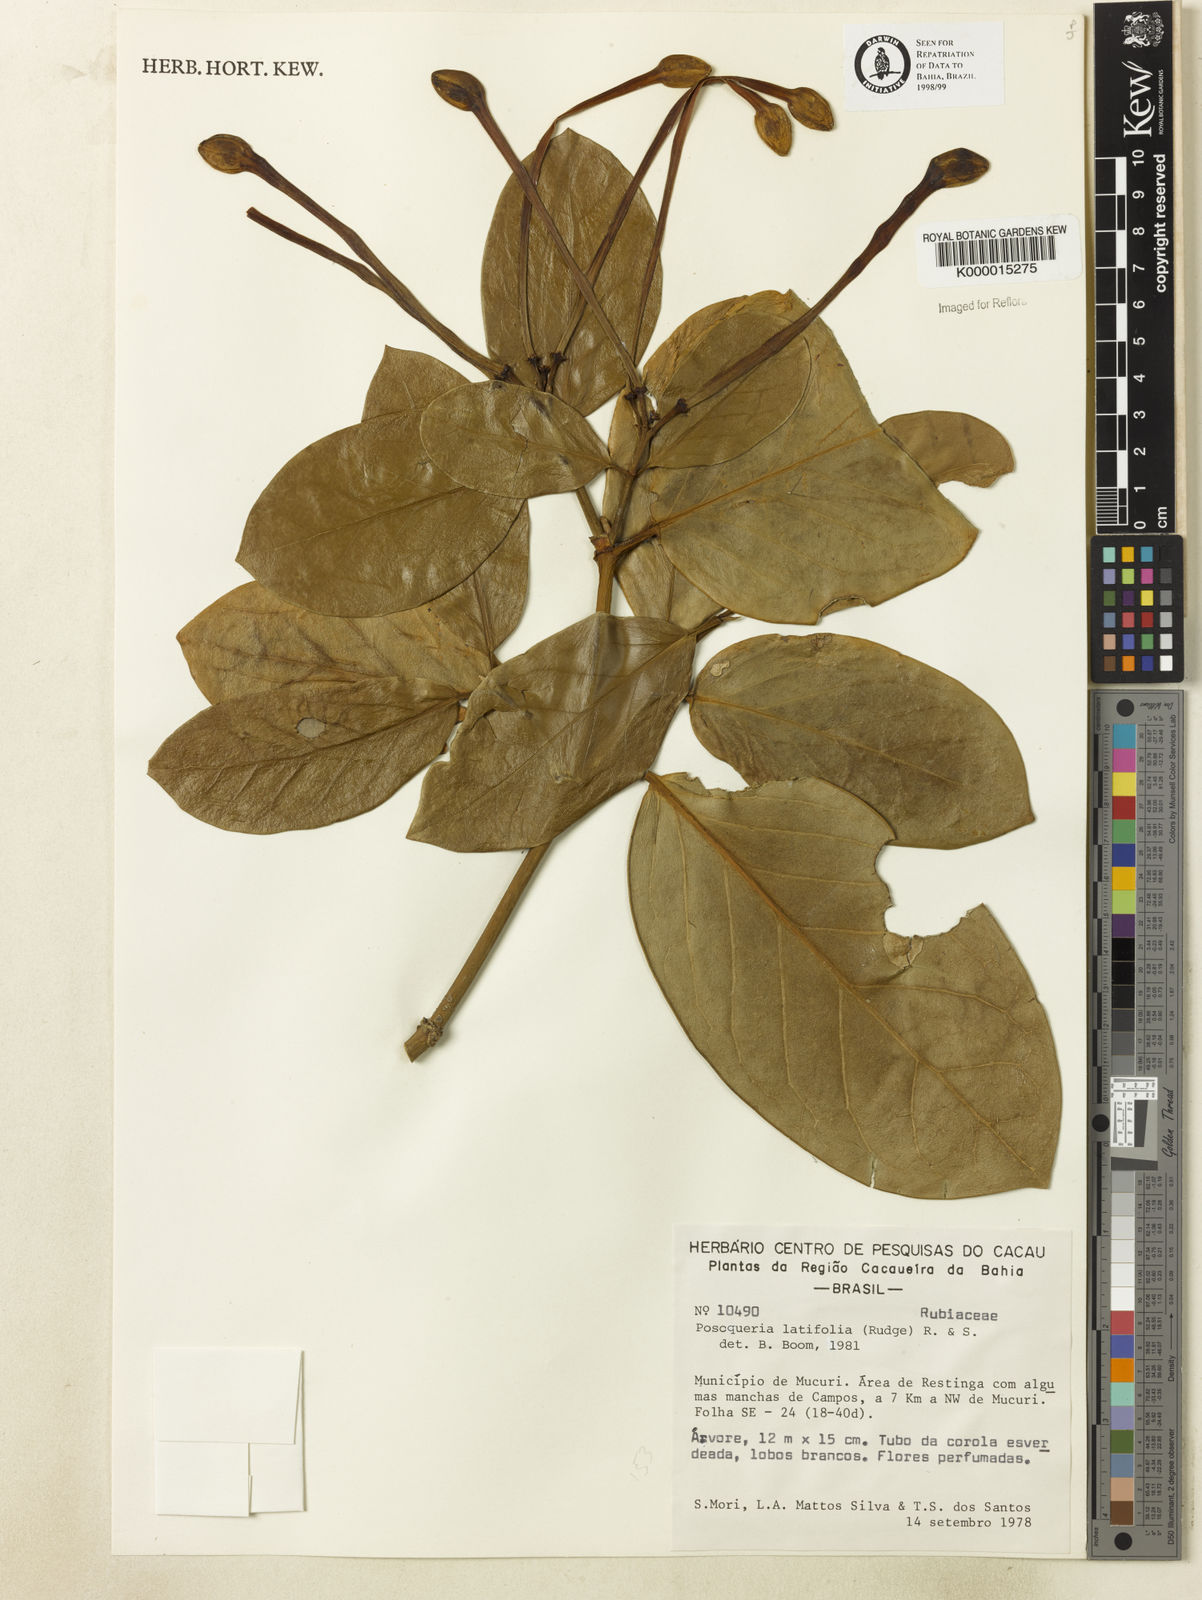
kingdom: Plantae
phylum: Tracheophyta
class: Magnoliopsida
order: Gentianales
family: Rubiaceae
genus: Posoqueria
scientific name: Posoqueria
